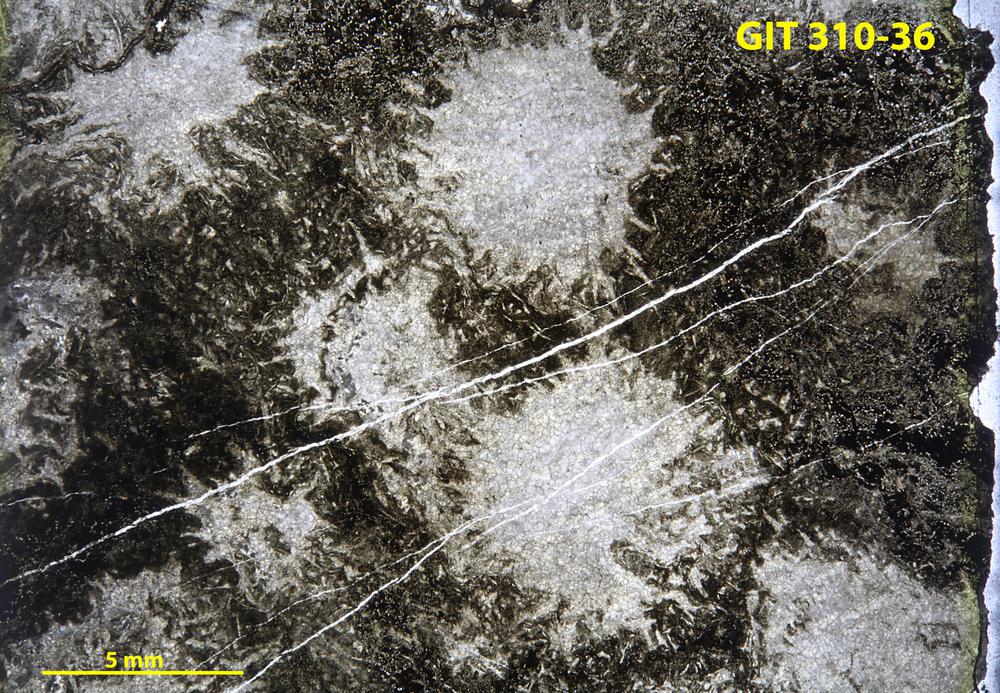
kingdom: Animalia
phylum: Porifera
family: Labechiidae
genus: Stromatocerium
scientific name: Stromatocerium
